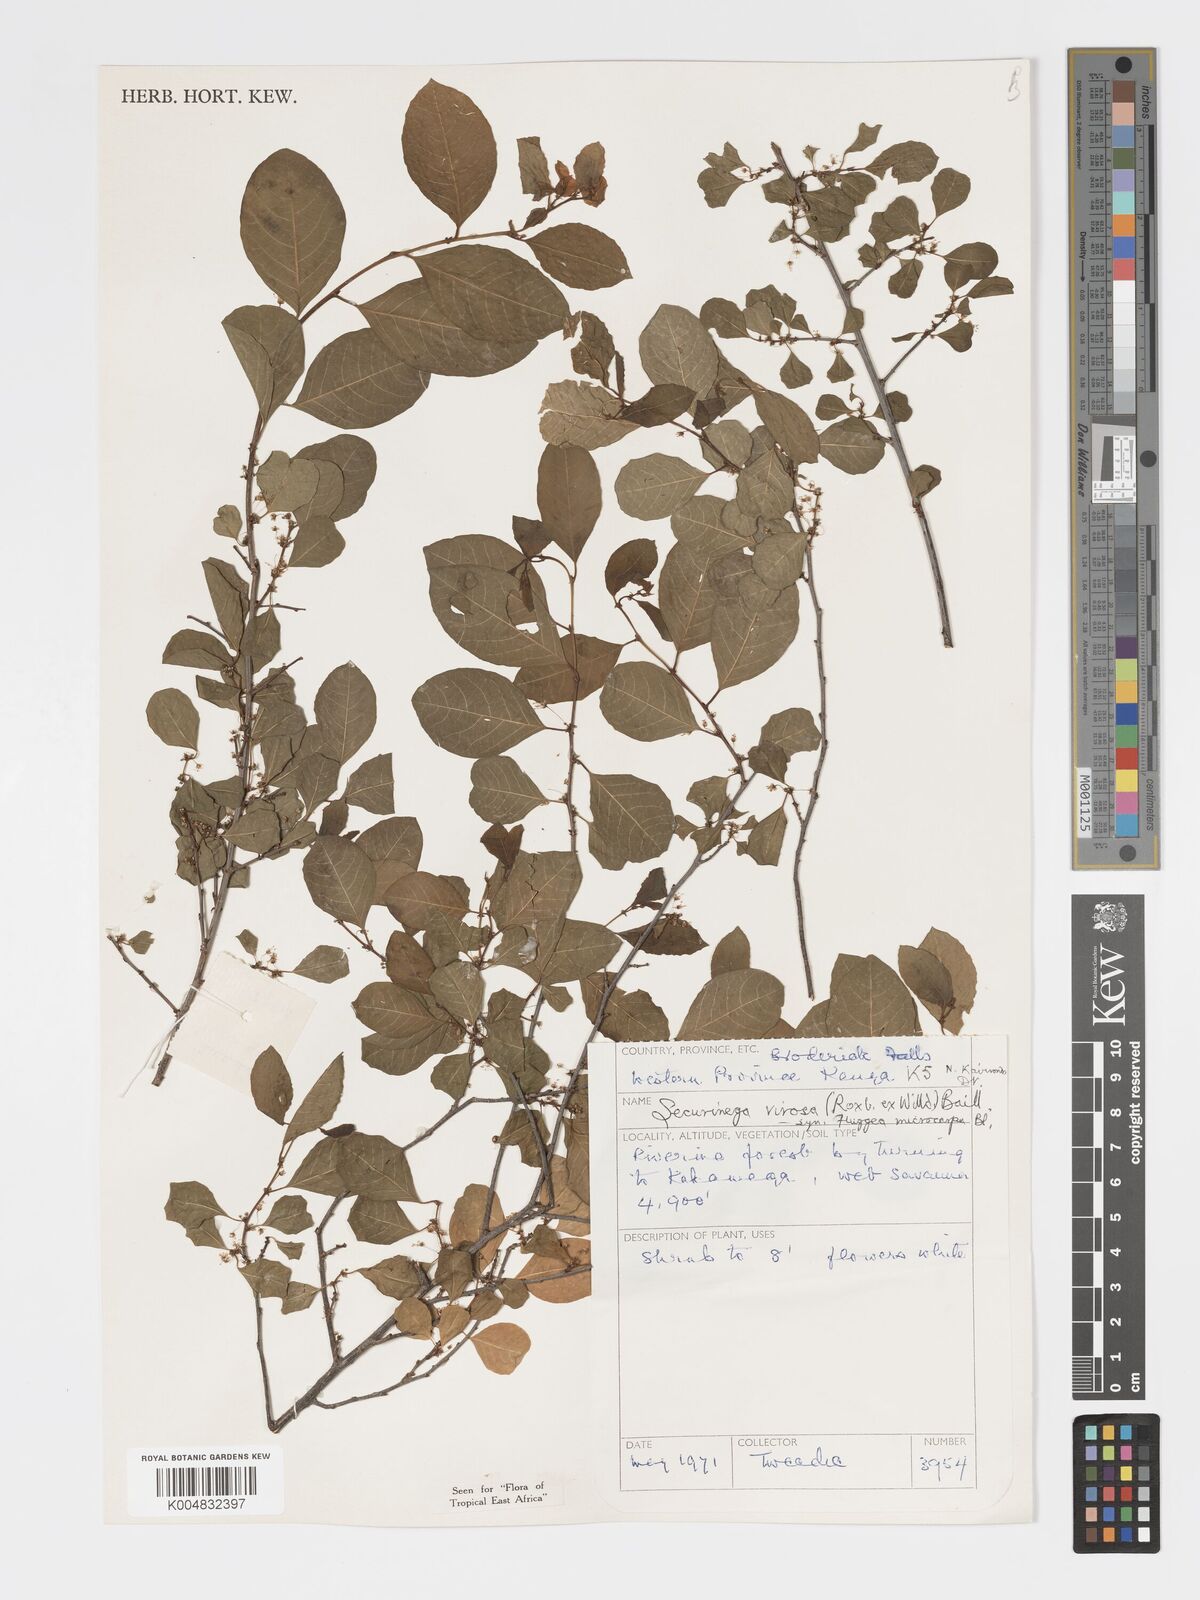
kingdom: Plantae
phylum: Tracheophyta
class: Magnoliopsida
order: Malpighiales
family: Phyllanthaceae
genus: Flueggea
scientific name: Flueggea virosa
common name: Common bushweed
